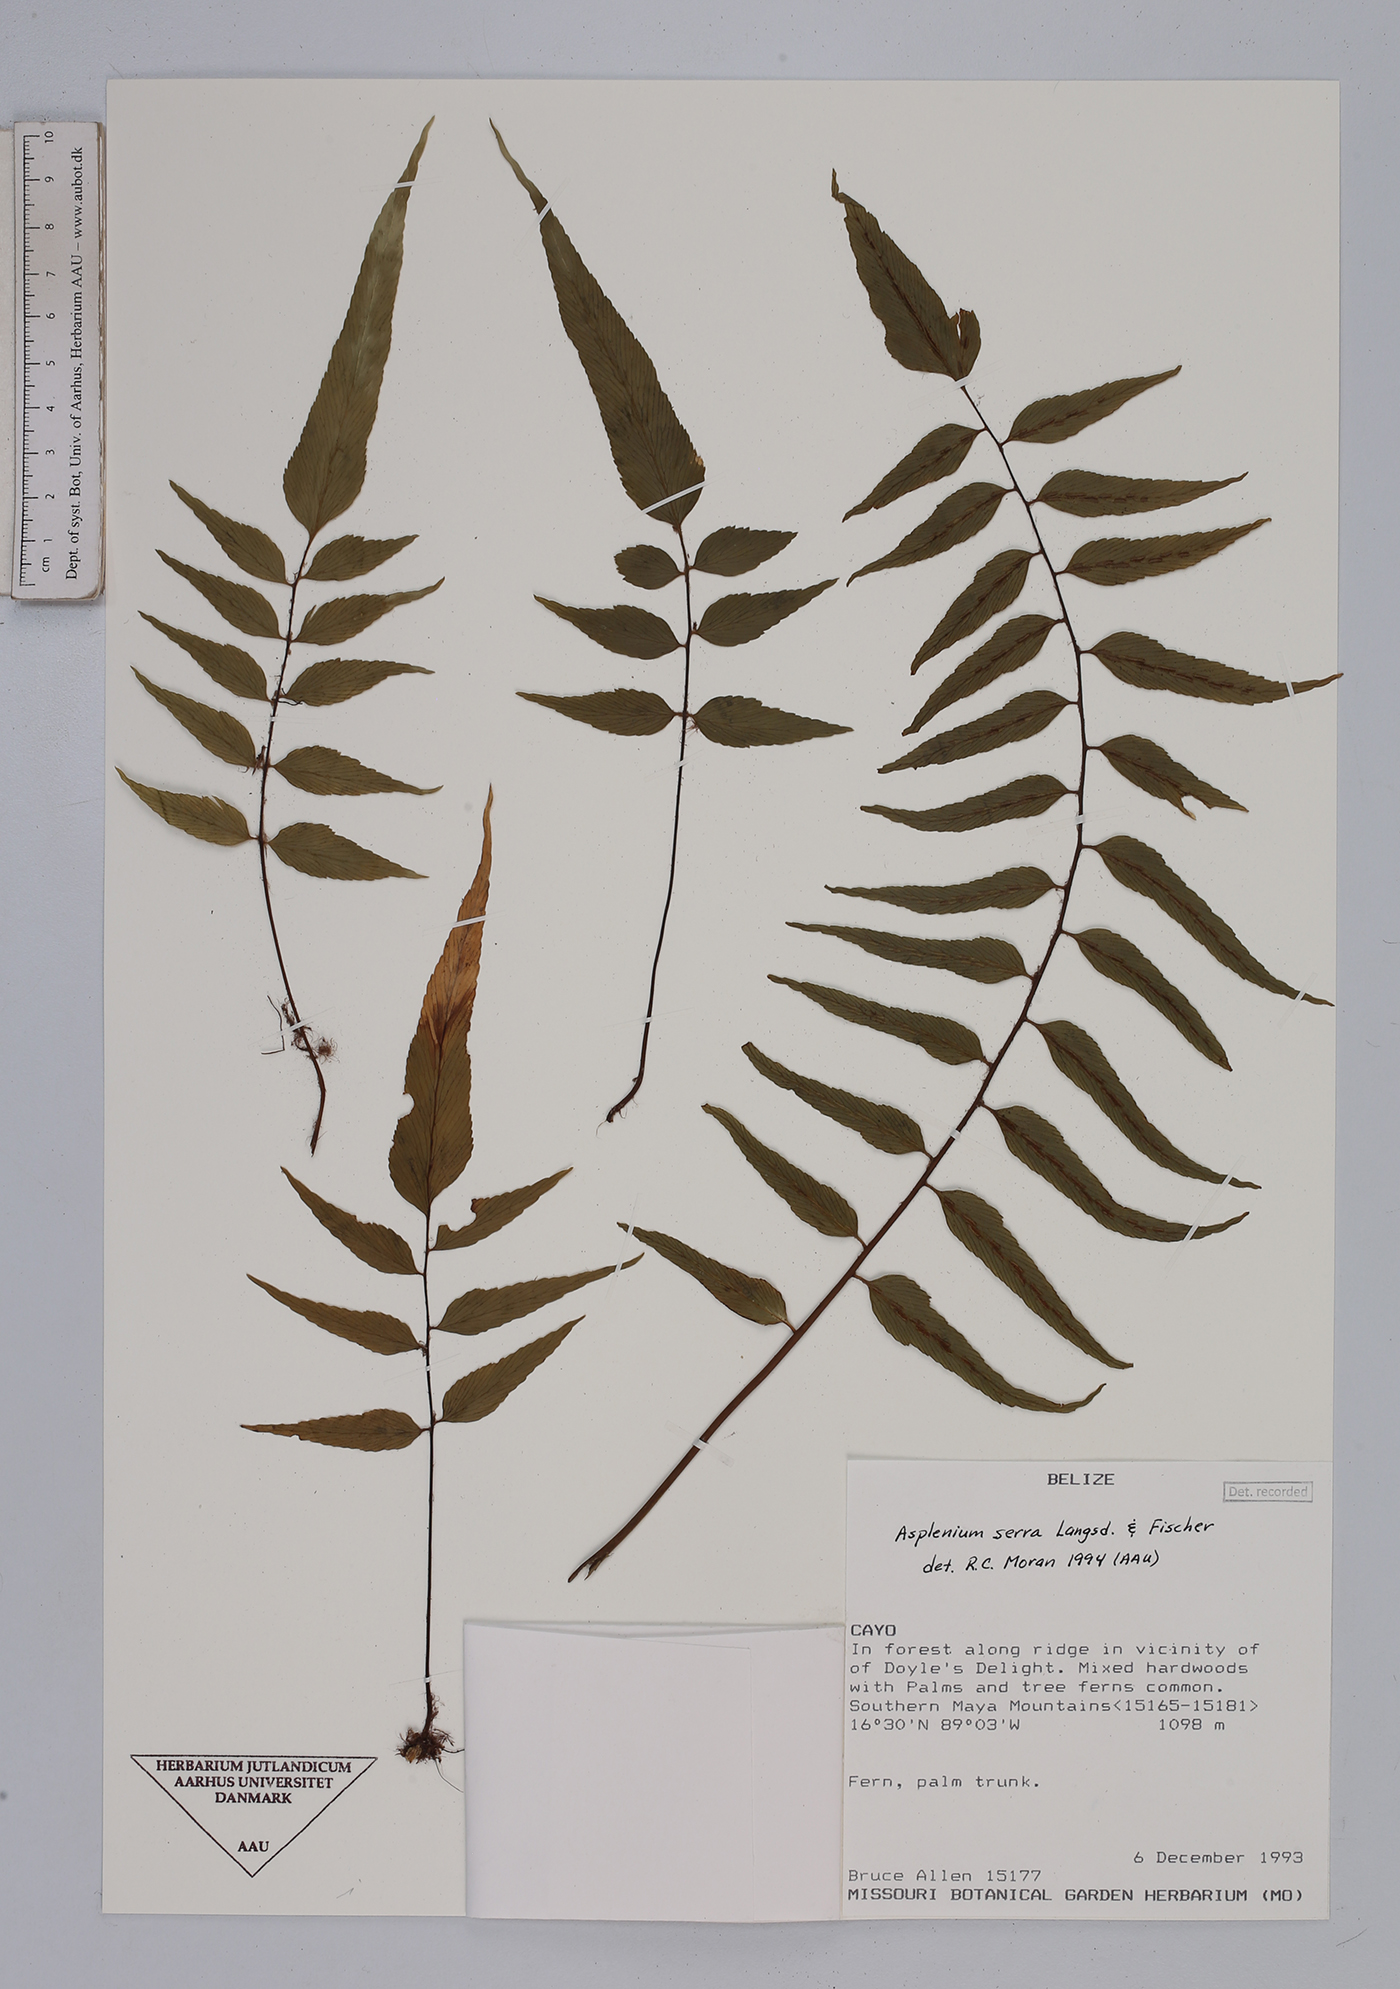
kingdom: Plantae
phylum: Tracheophyta
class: Polypodiopsida
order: Polypodiales
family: Aspleniaceae
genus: Asplenium
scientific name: Asplenium serra
